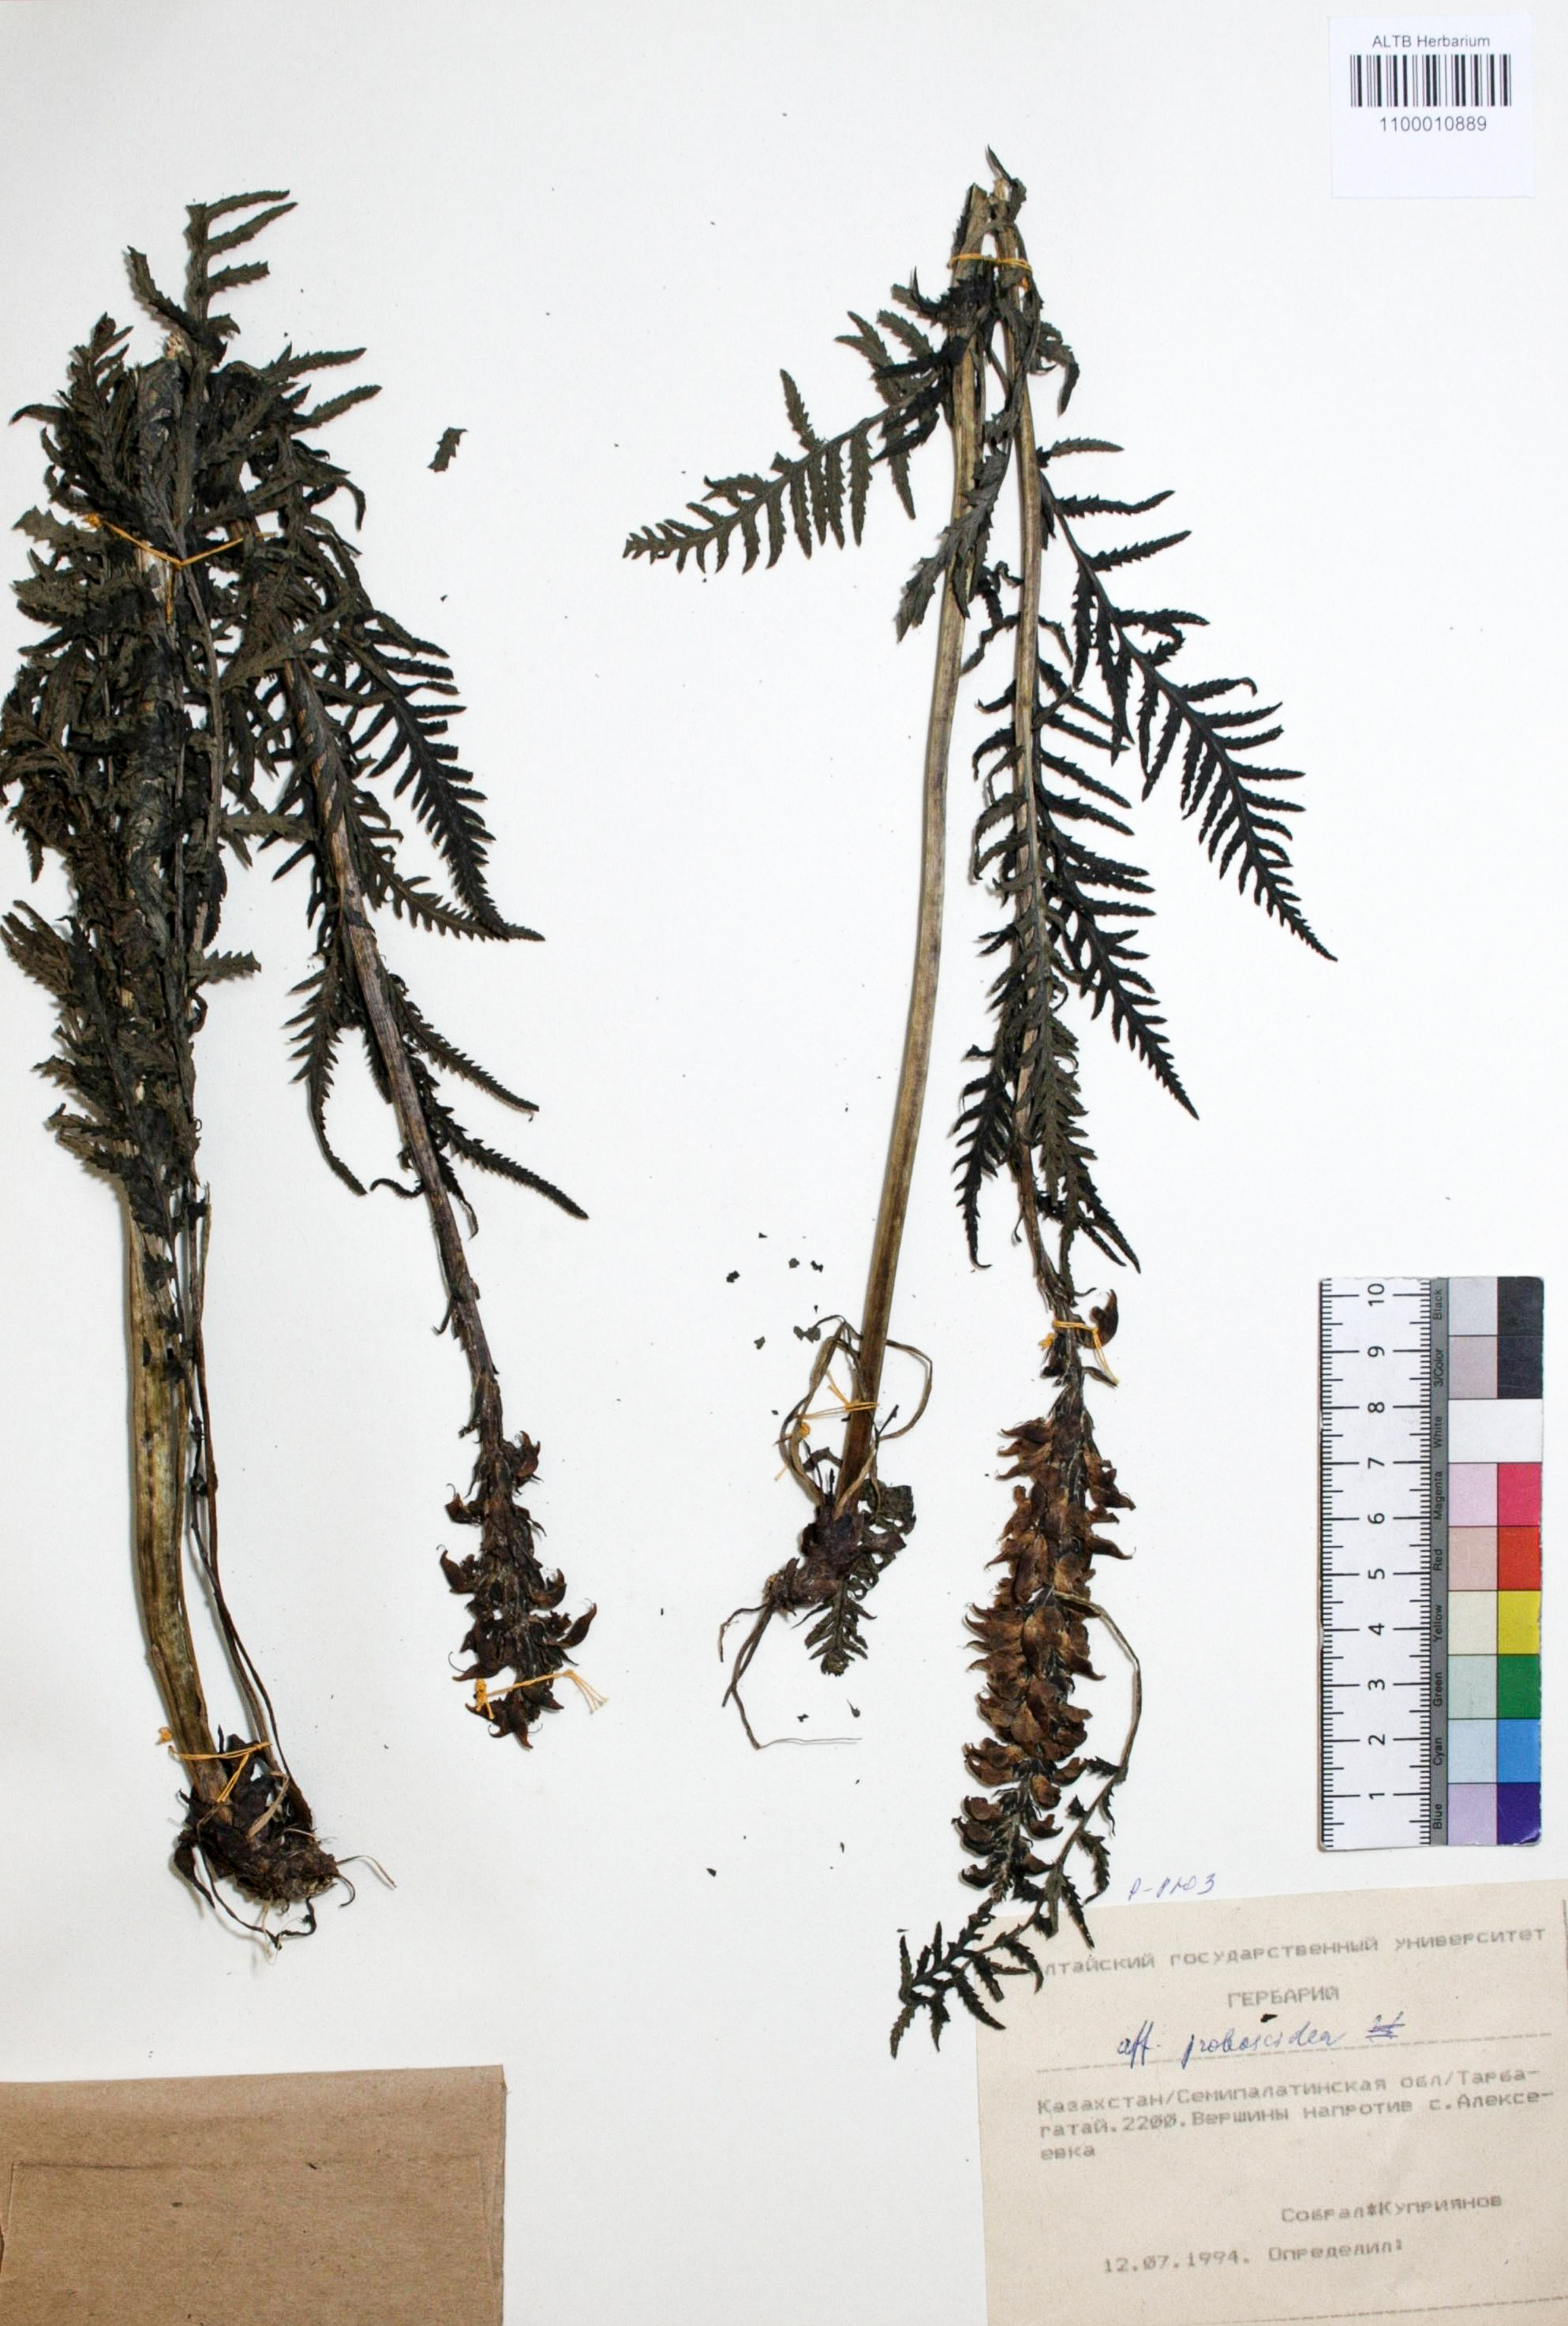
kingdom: Plantae
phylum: Tracheophyta
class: Magnoliopsida
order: Lamiales
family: Orobanchaceae
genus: Pedicularis
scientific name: Pedicularis proboscidea
